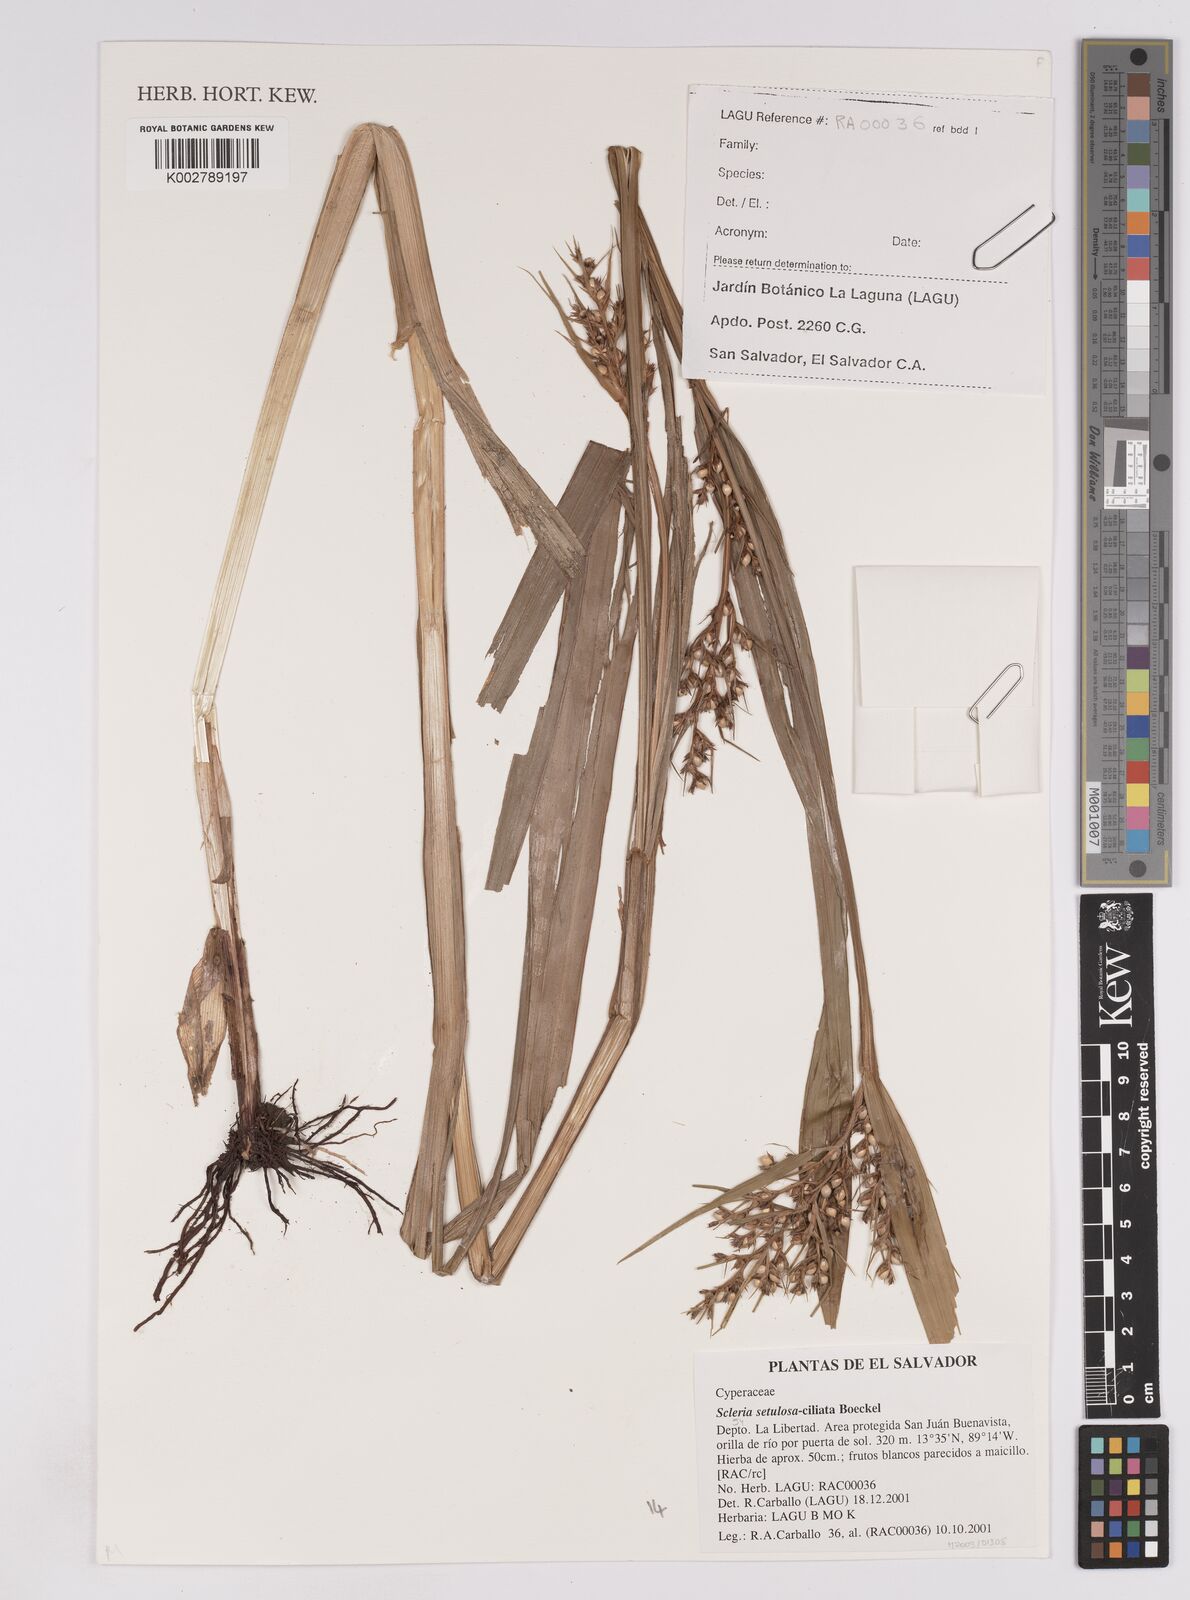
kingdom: Plantae
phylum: Tracheophyta
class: Liliopsida
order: Poales
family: Cyperaceae
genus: Scleria
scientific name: Scleria dregeana
